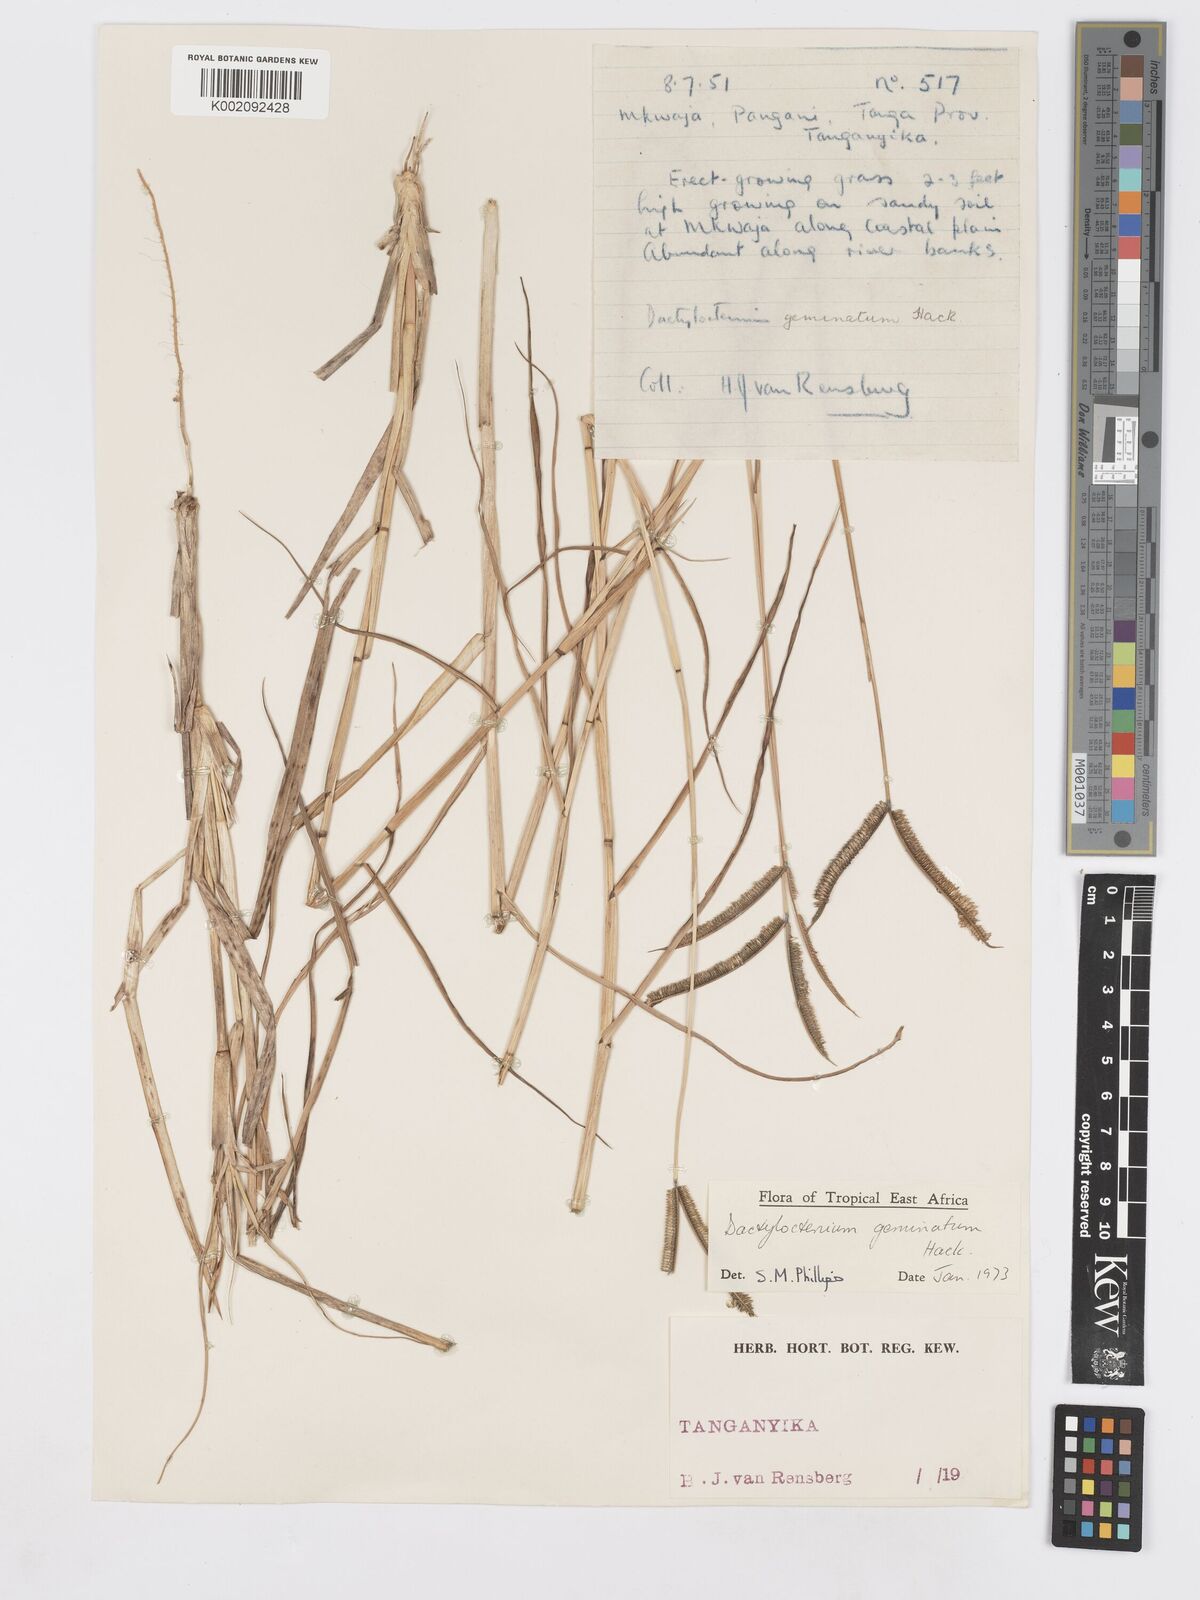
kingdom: Plantae
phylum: Tracheophyta
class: Liliopsida
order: Poales
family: Poaceae
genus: Dactyloctenium
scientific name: Dactyloctenium geminatum
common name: Crowsfoot grass
